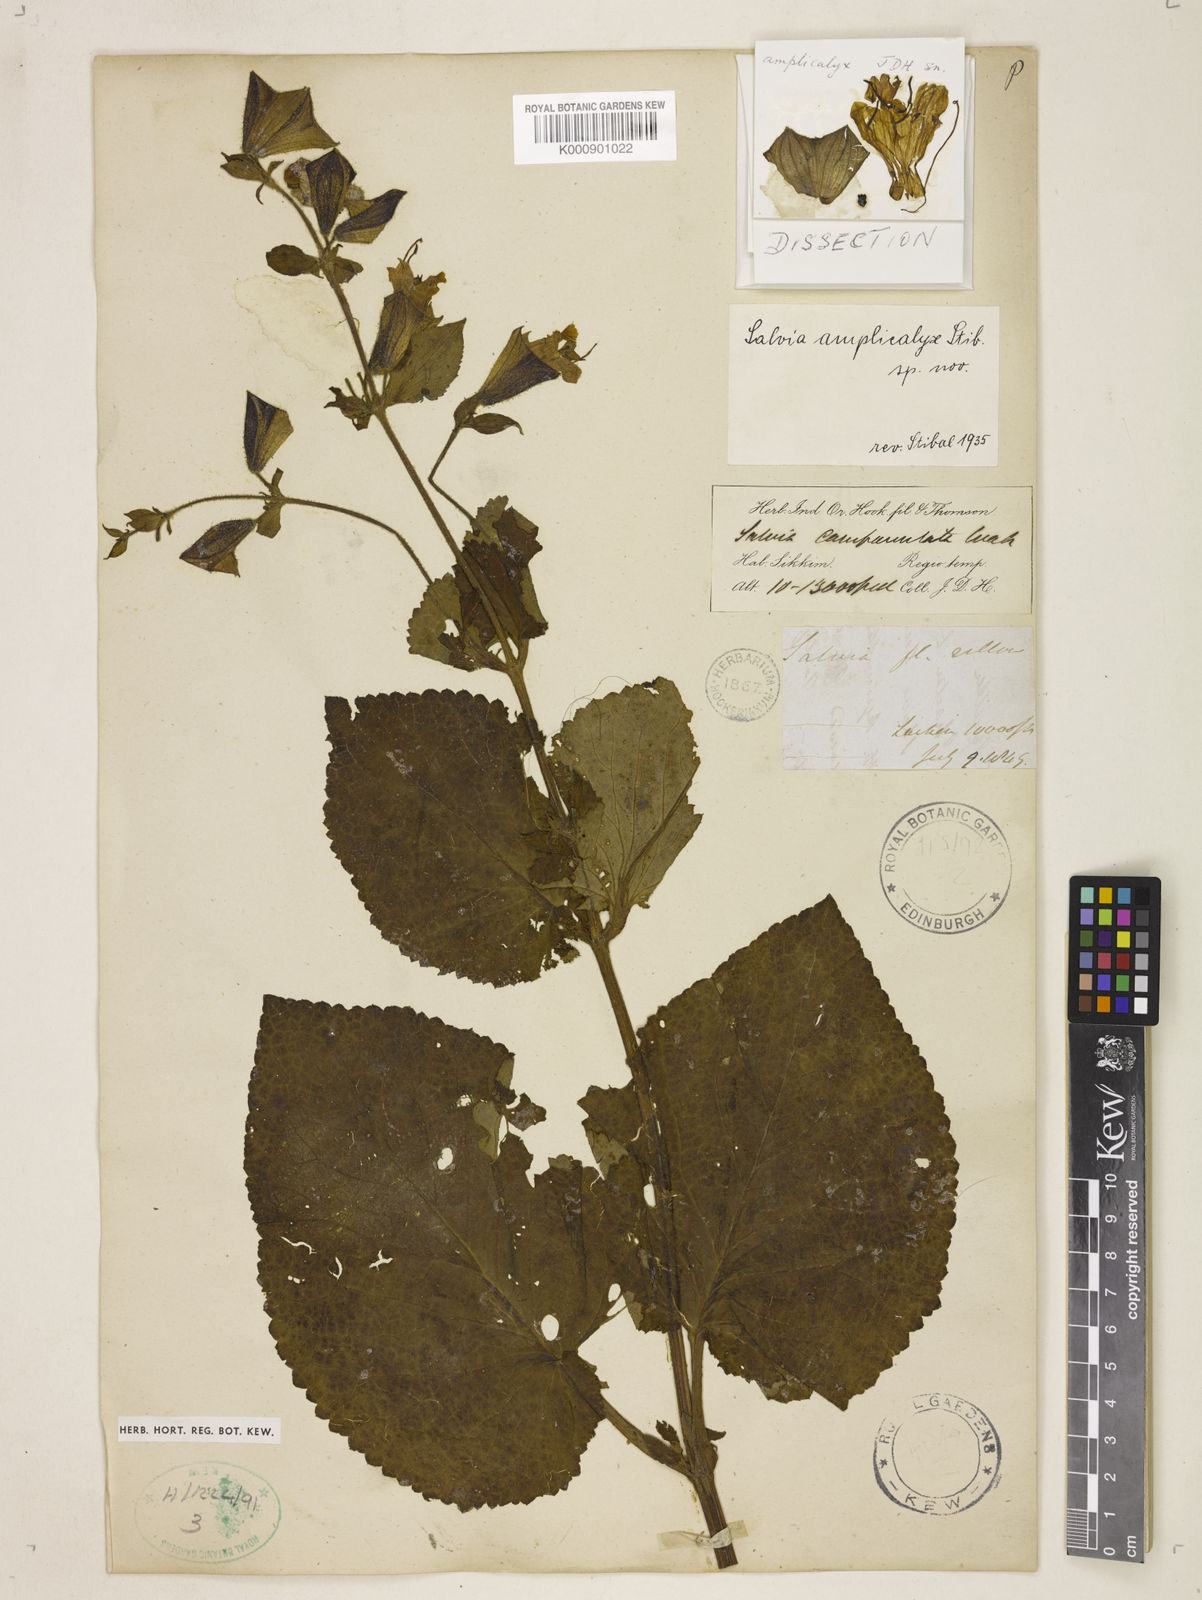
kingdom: Plantae
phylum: Tracheophyta
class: Magnoliopsida
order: Lamiales
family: Lamiaceae
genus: Salvia
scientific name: Salvia amplicalyx
